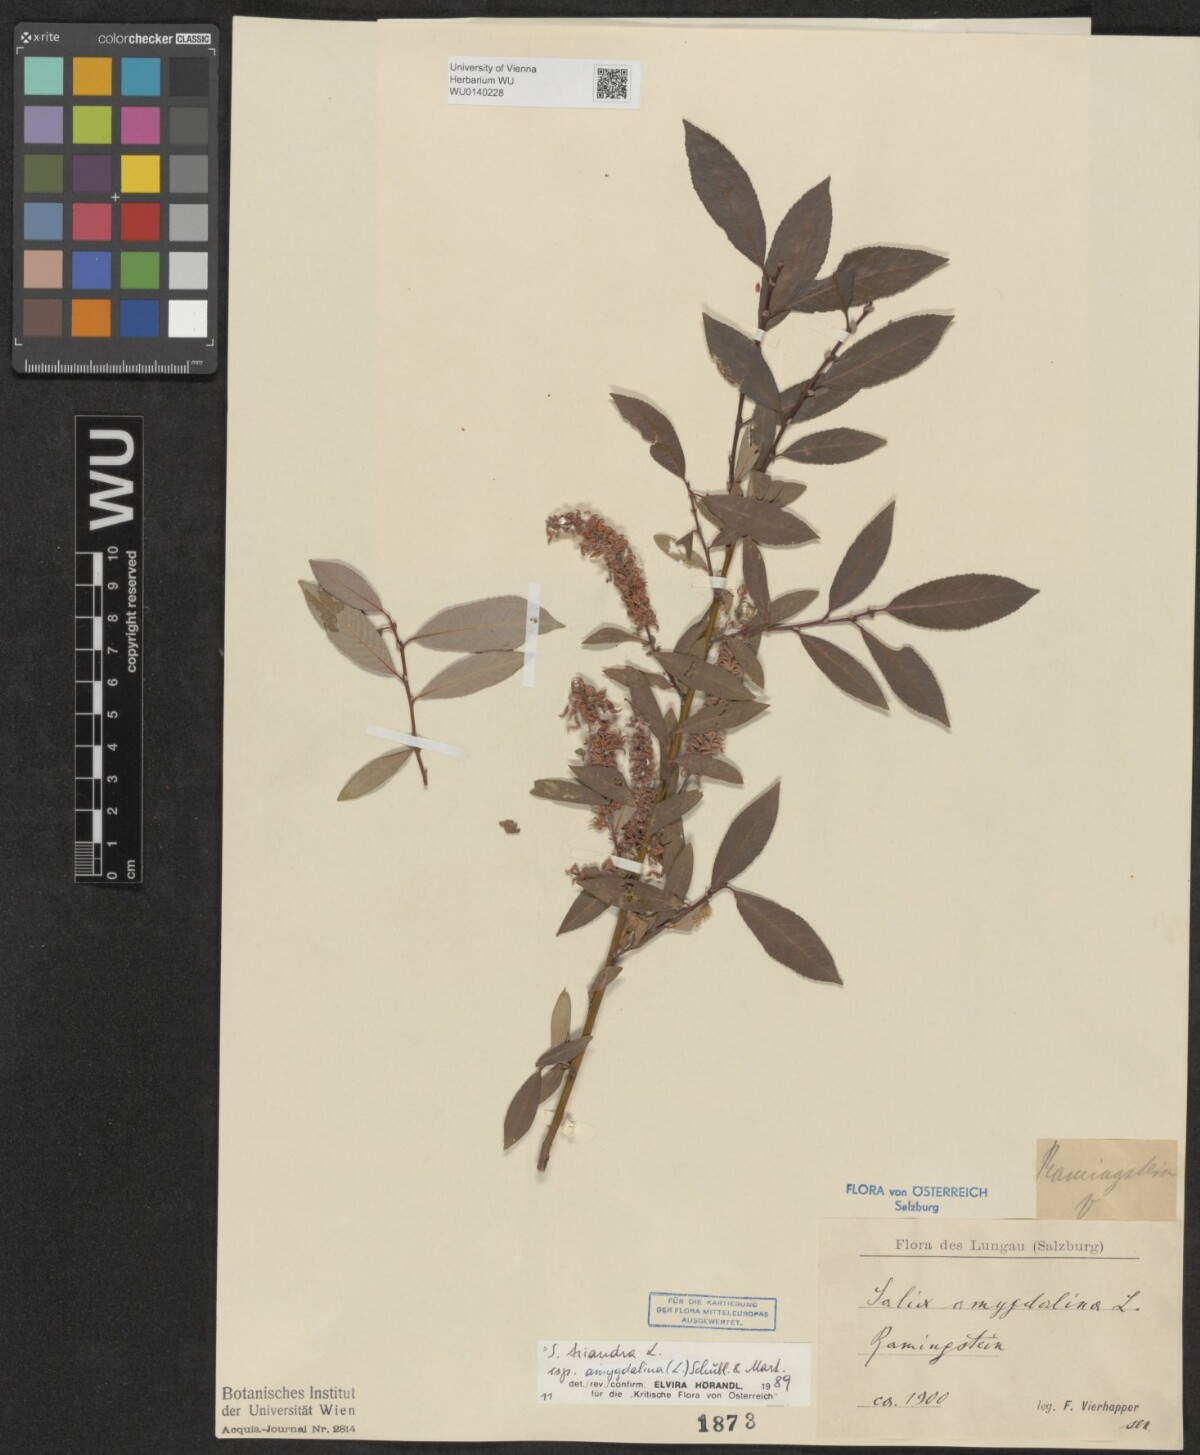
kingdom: Plantae
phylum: Tracheophyta
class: Magnoliopsida
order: Malpighiales
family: Salicaceae
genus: Salix
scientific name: Salix triandra
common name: Almond willow
